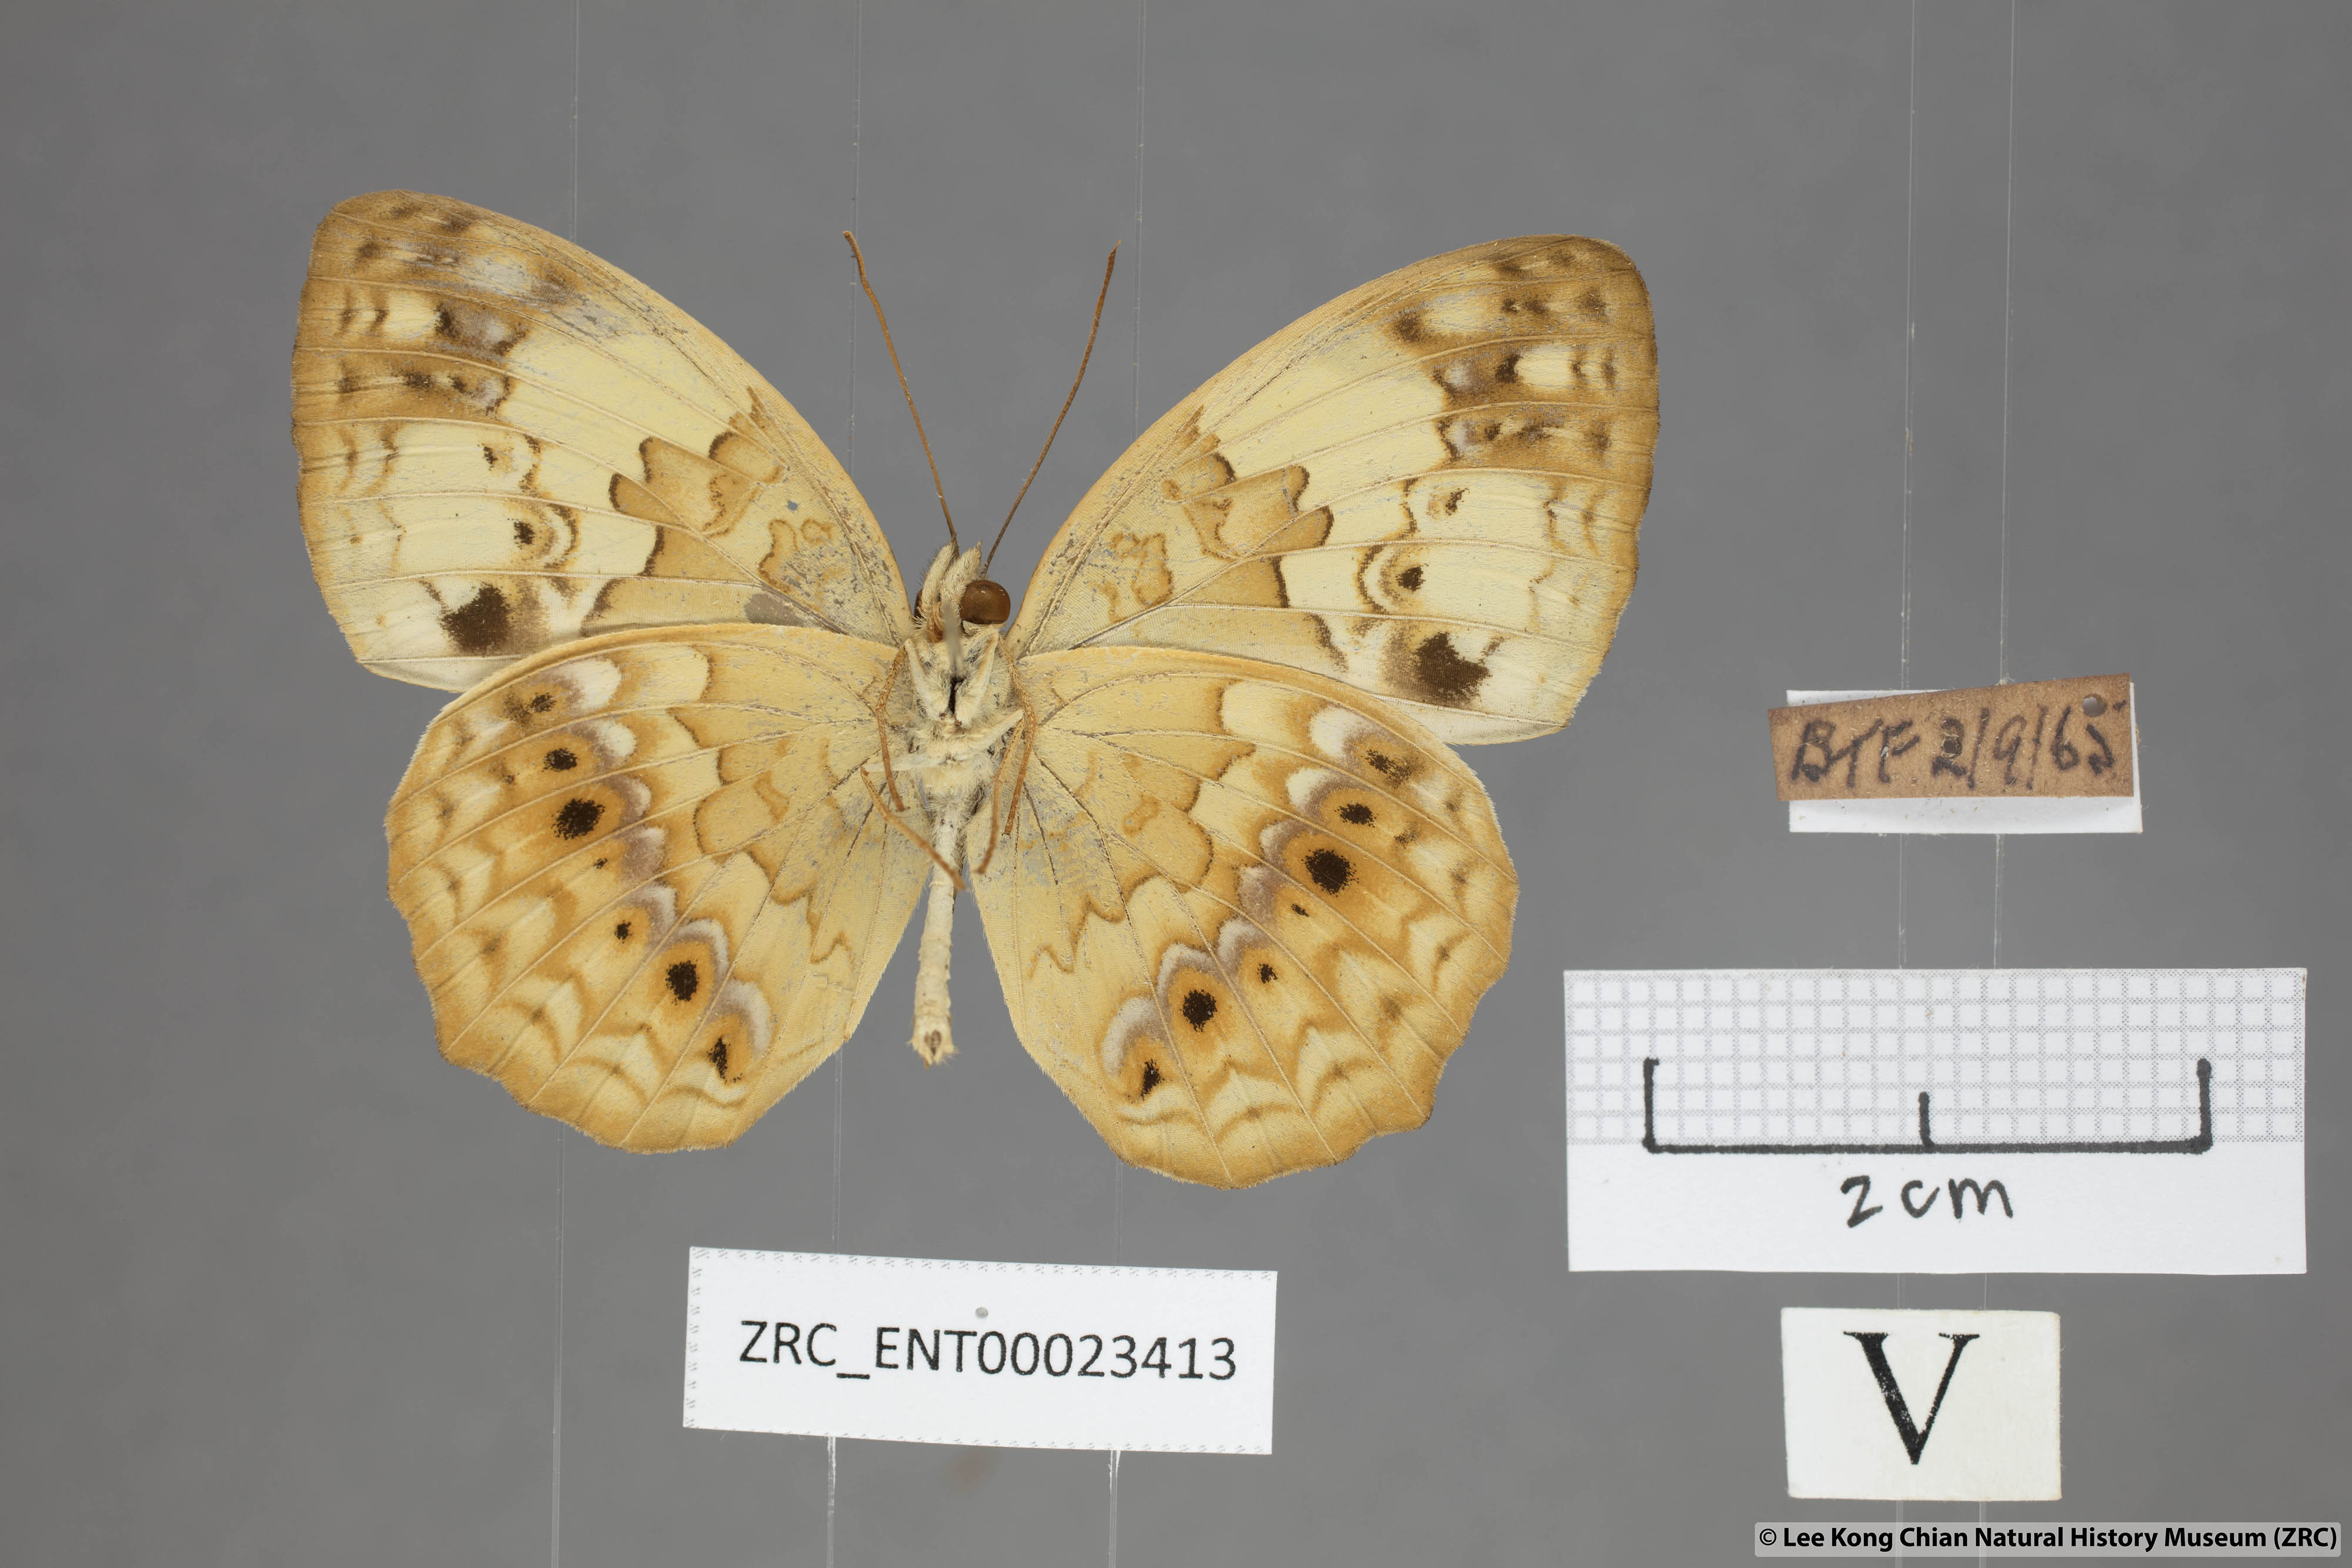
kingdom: Animalia
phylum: Arthropoda
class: Insecta
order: Lepidoptera
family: Nymphalidae
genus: Cupha
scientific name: Cupha erymanthis
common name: Rustic
